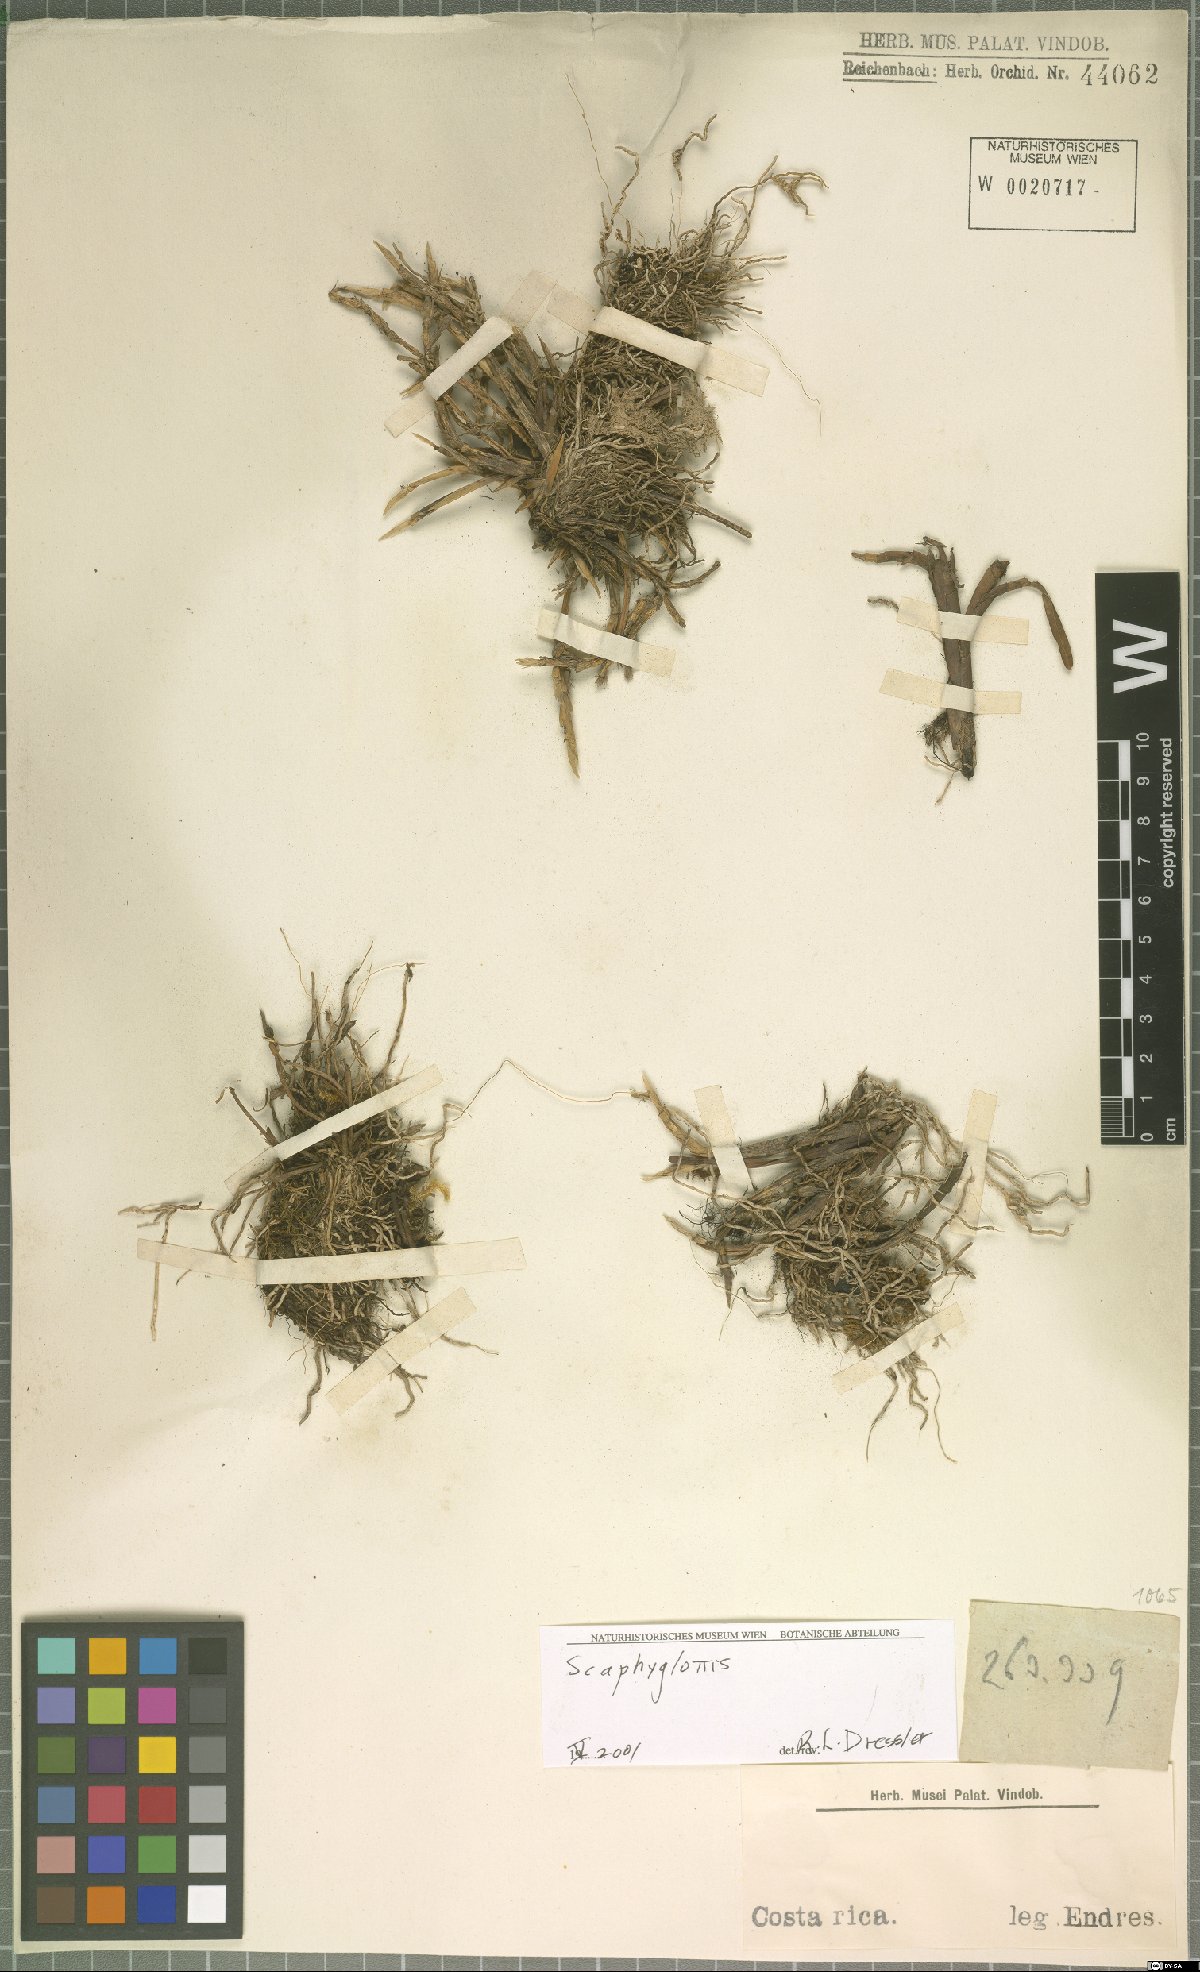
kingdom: Plantae
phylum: Tracheophyta
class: Liliopsida
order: Asparagales
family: Orchidaceae
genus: Scaphyglottis
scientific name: Scaphyglottis
